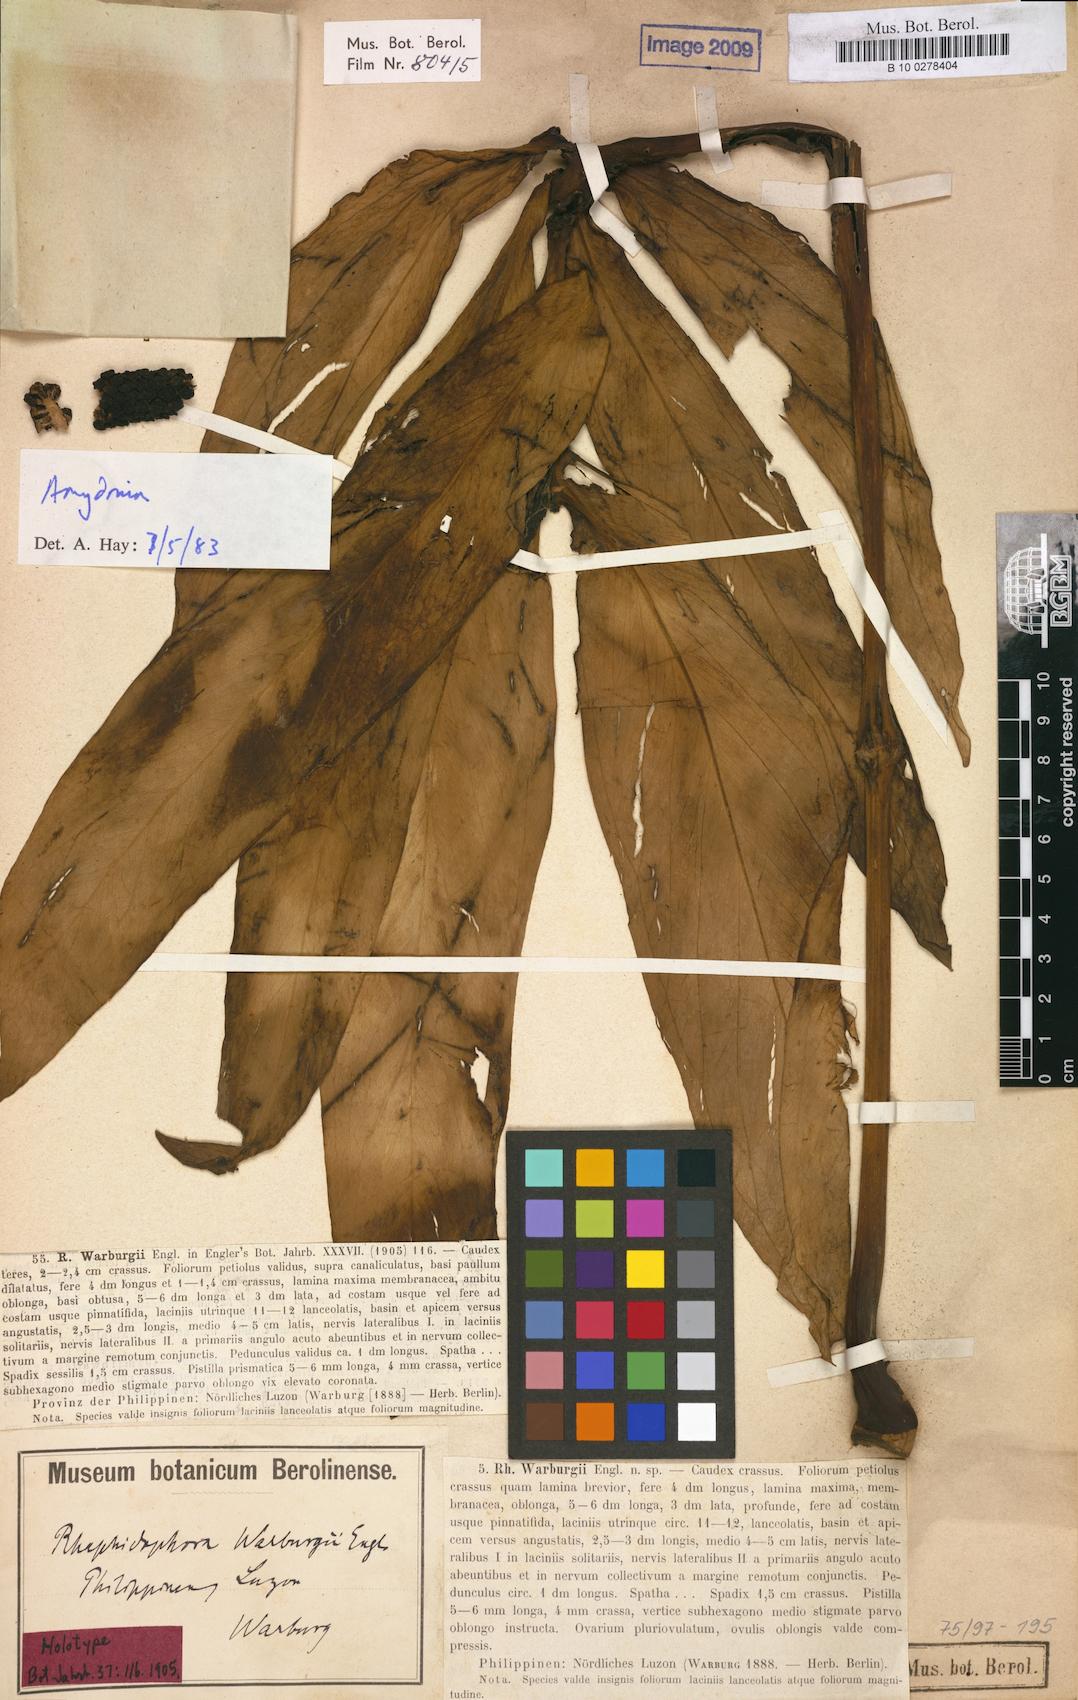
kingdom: Plantae
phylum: Tracheophyta
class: Liliopsida
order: Alismatales
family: Araceae
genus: Rhaphidophora
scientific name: Rhaphidophora
